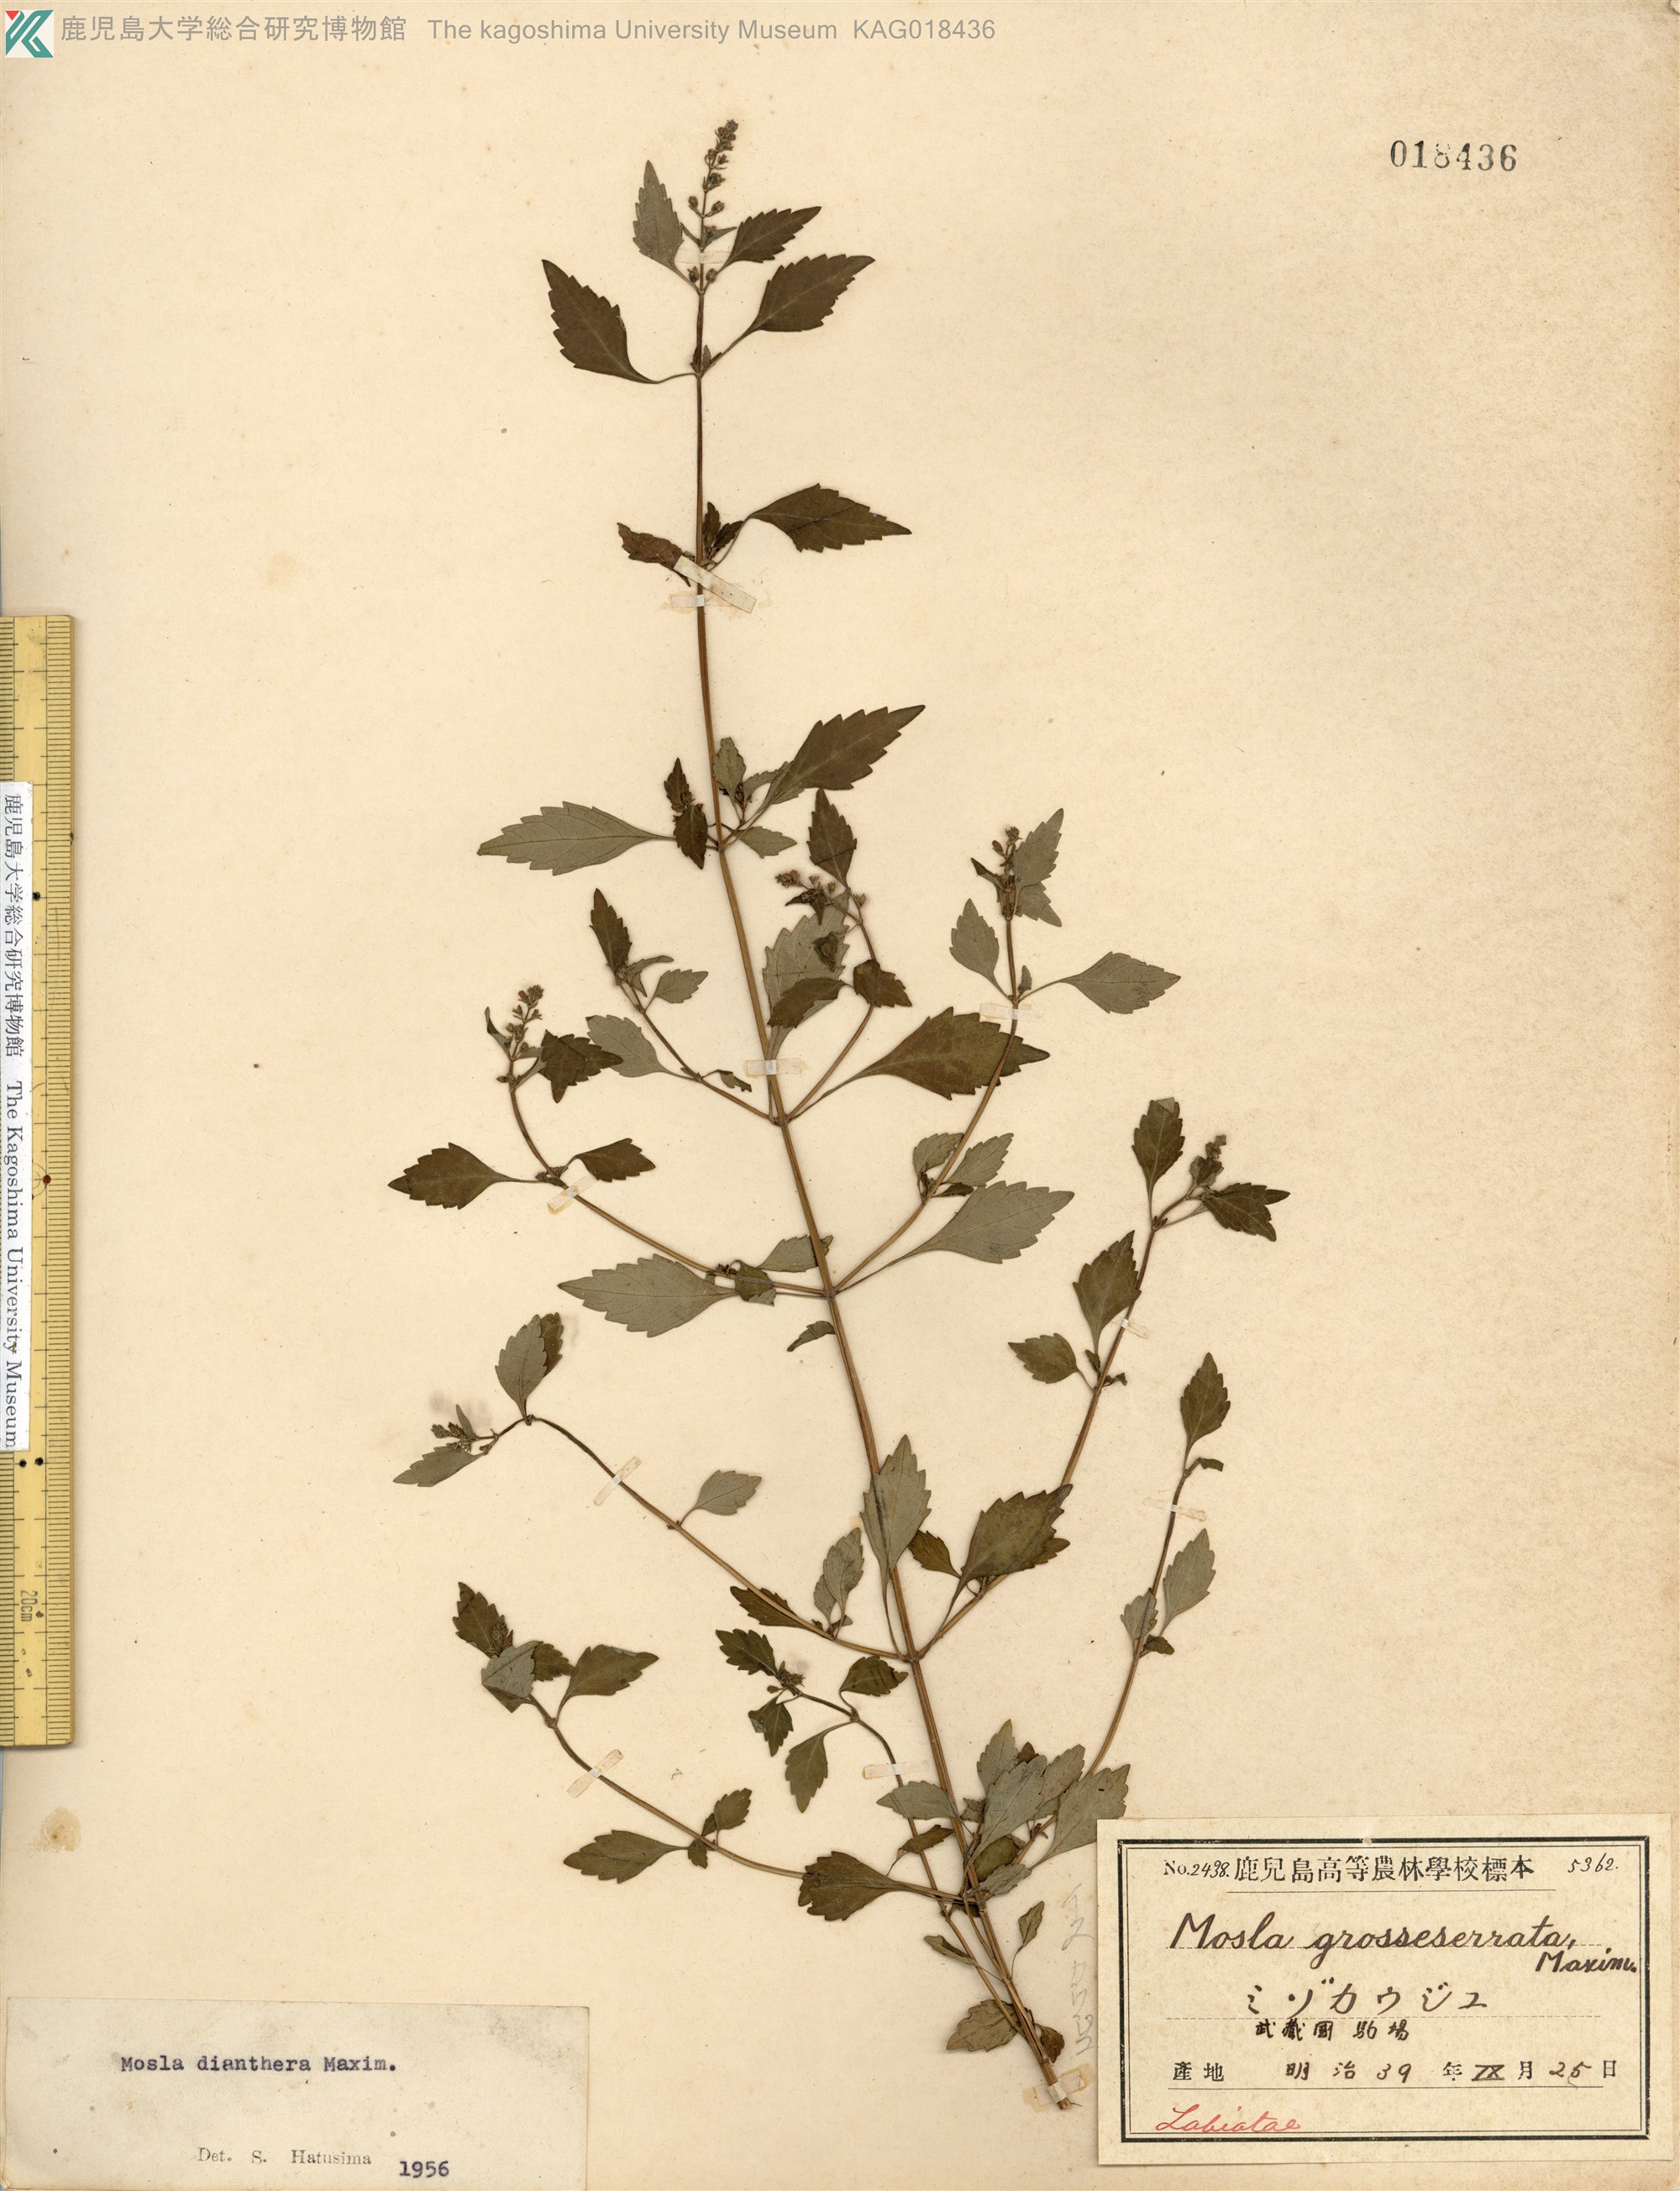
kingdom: Plantae
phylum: Tracheophyta
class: Magnoliopsida
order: Lamiales
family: Lamiaceae
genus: Mosla
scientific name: Mosla dianthera
